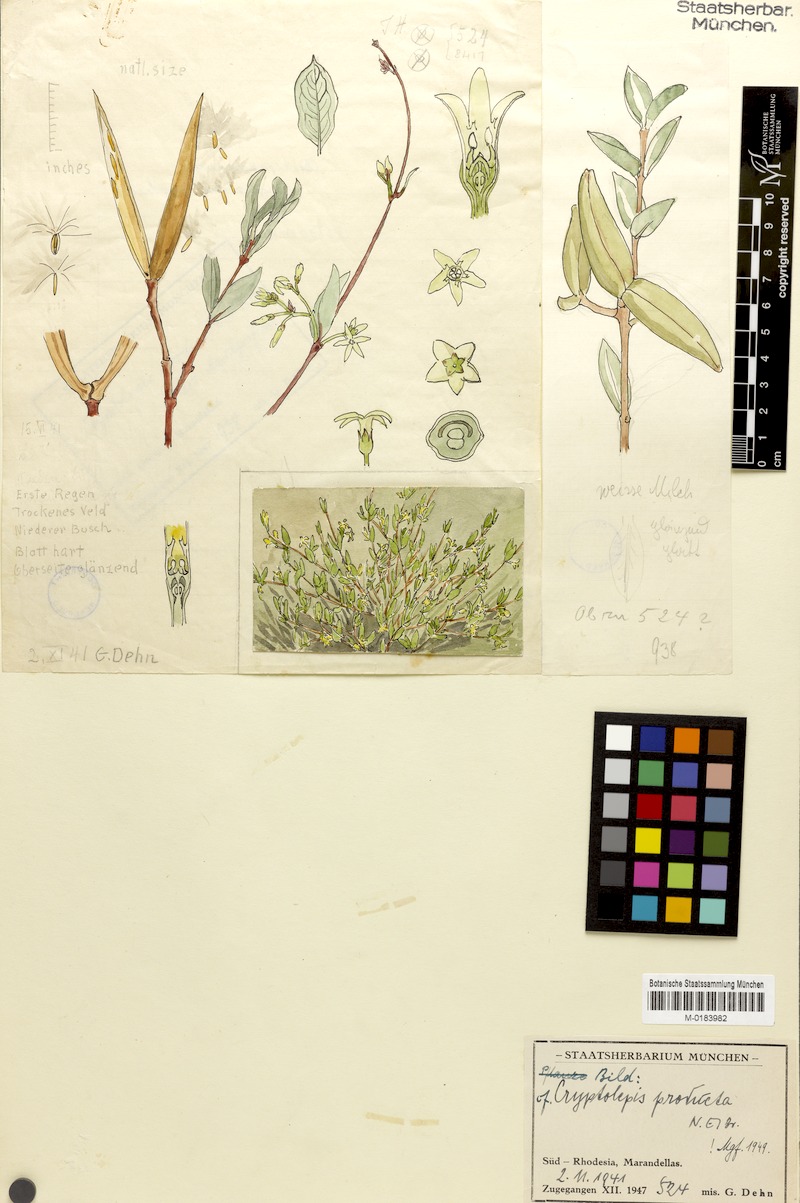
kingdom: Plantae
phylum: Tracheophyta
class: Magnoliopsida
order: Gentianales
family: Apocynaceae
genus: Cryptolepis
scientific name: Cryptolepis oblongifolia
